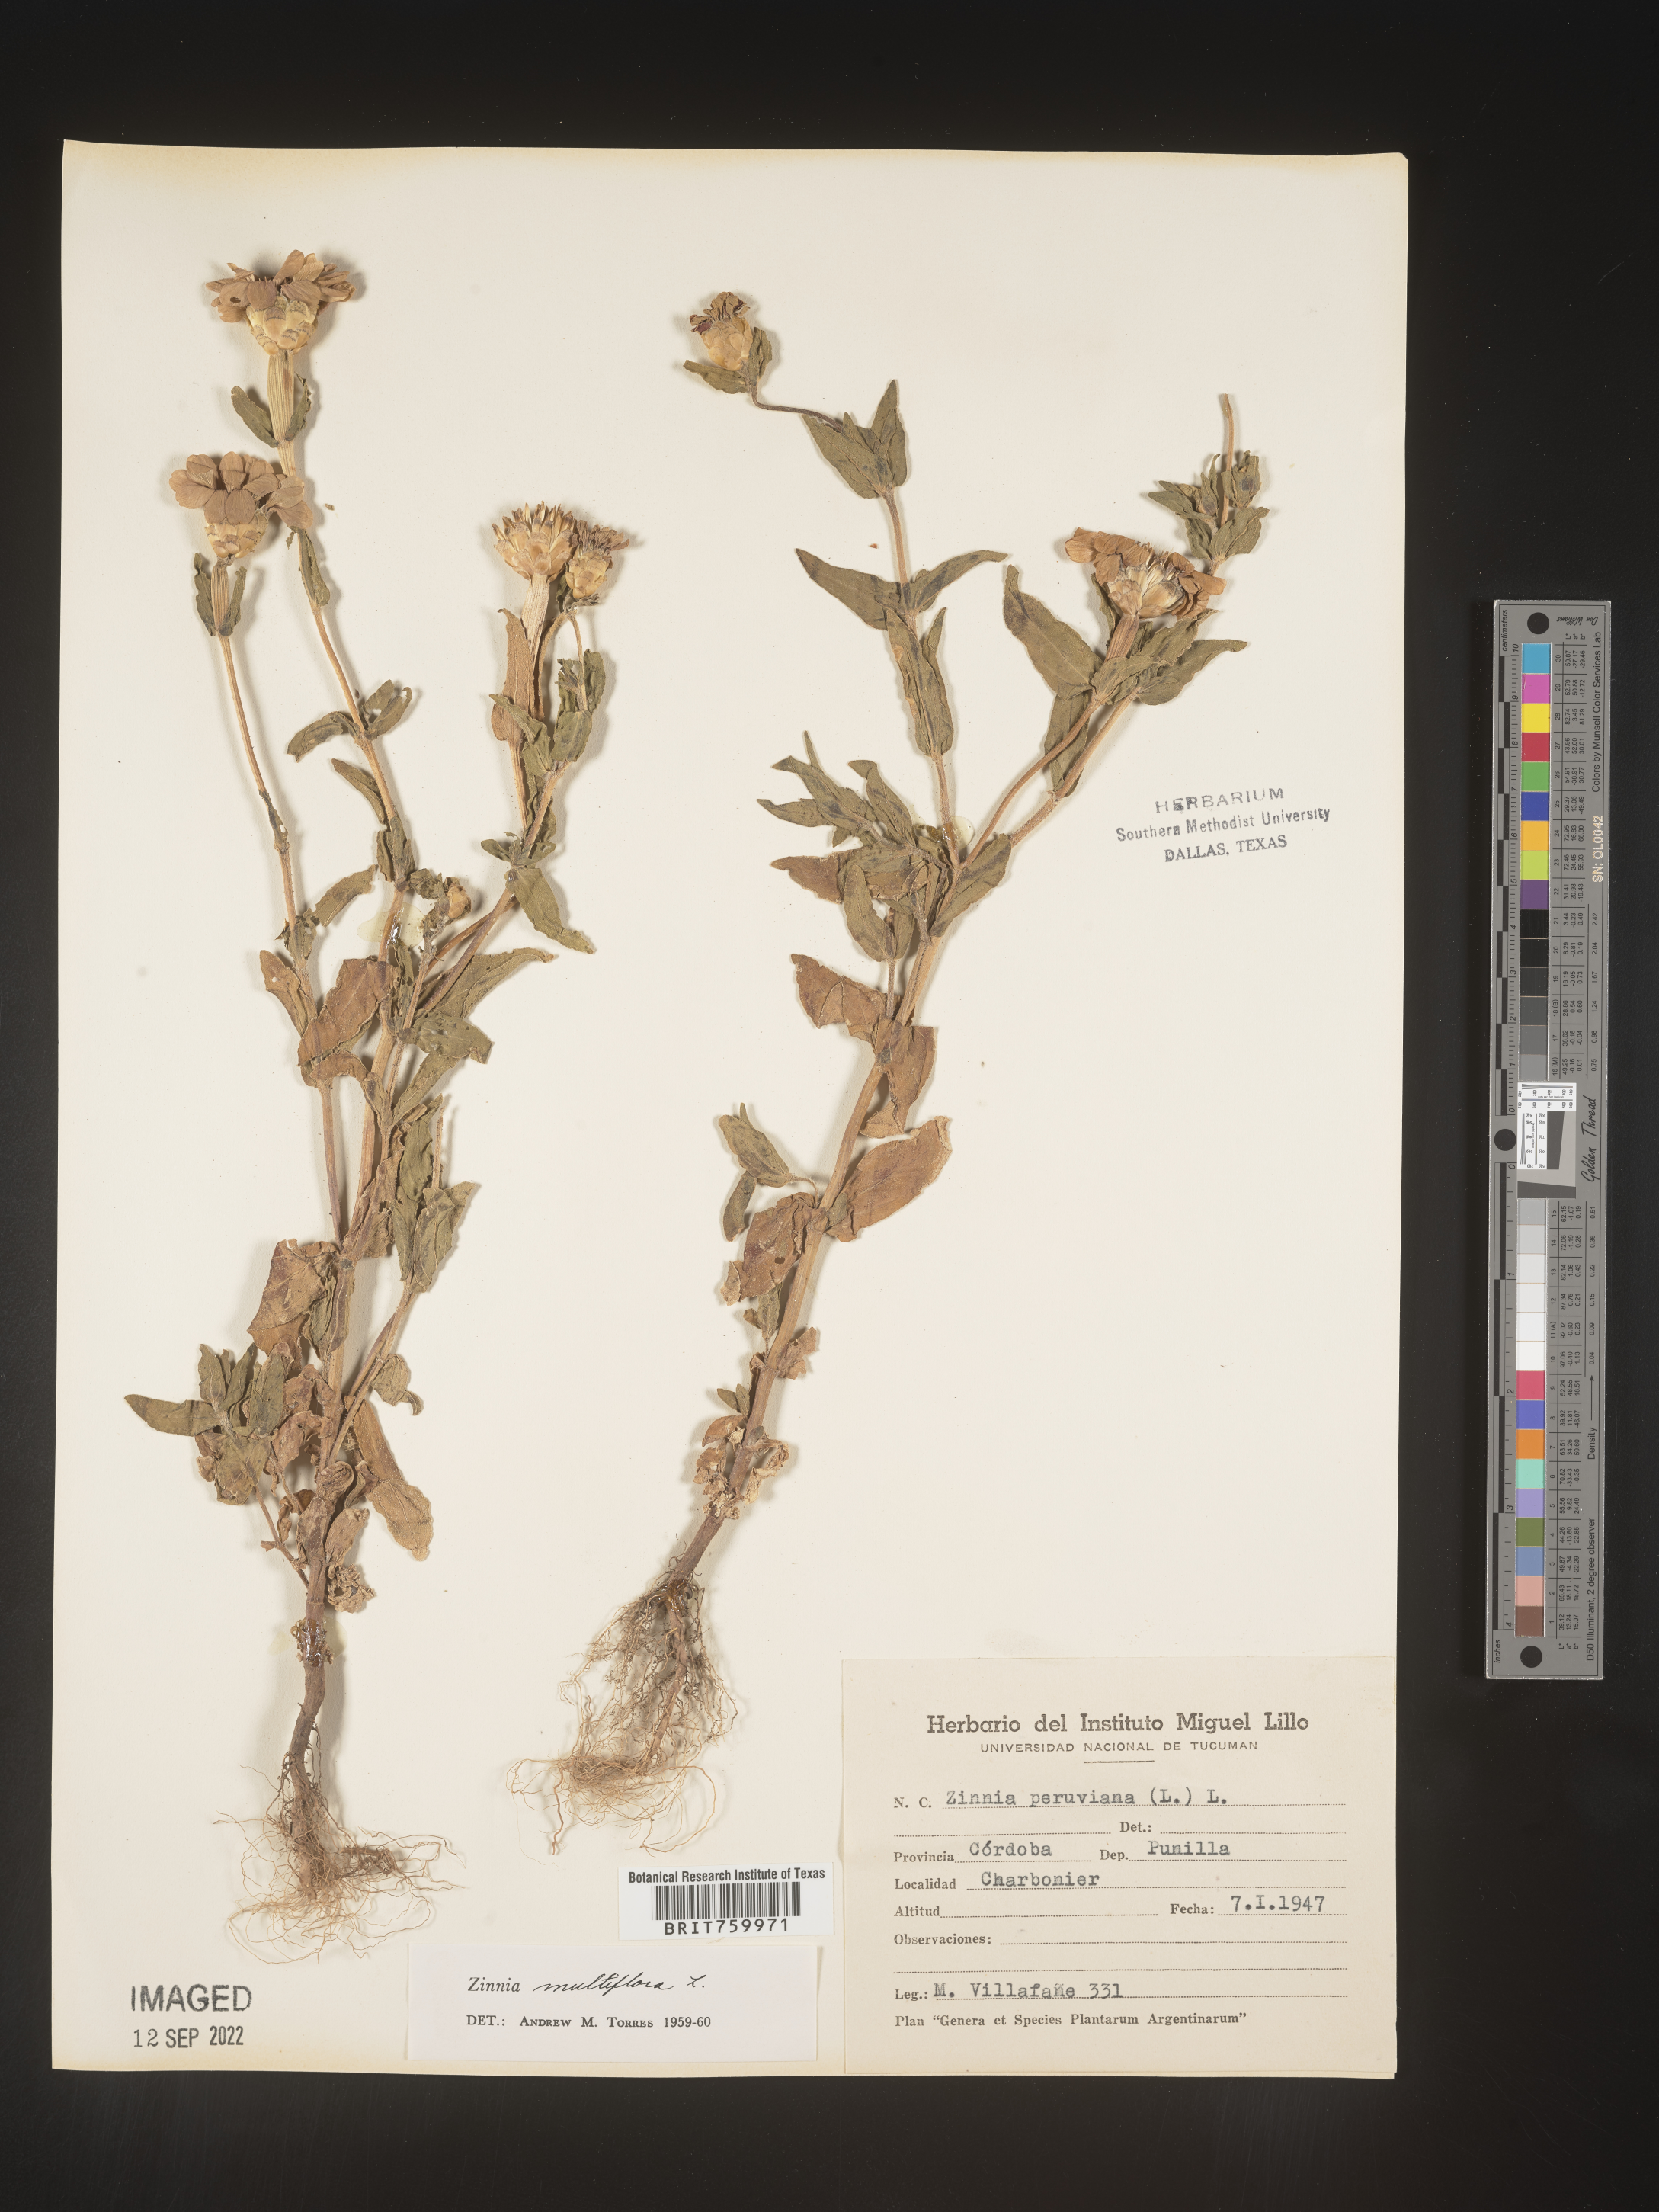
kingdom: Plantae
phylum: Tracheophyta
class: Magnoliopsida
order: Asterales
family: Asteraceae
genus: Zinnia
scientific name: Zinnia
